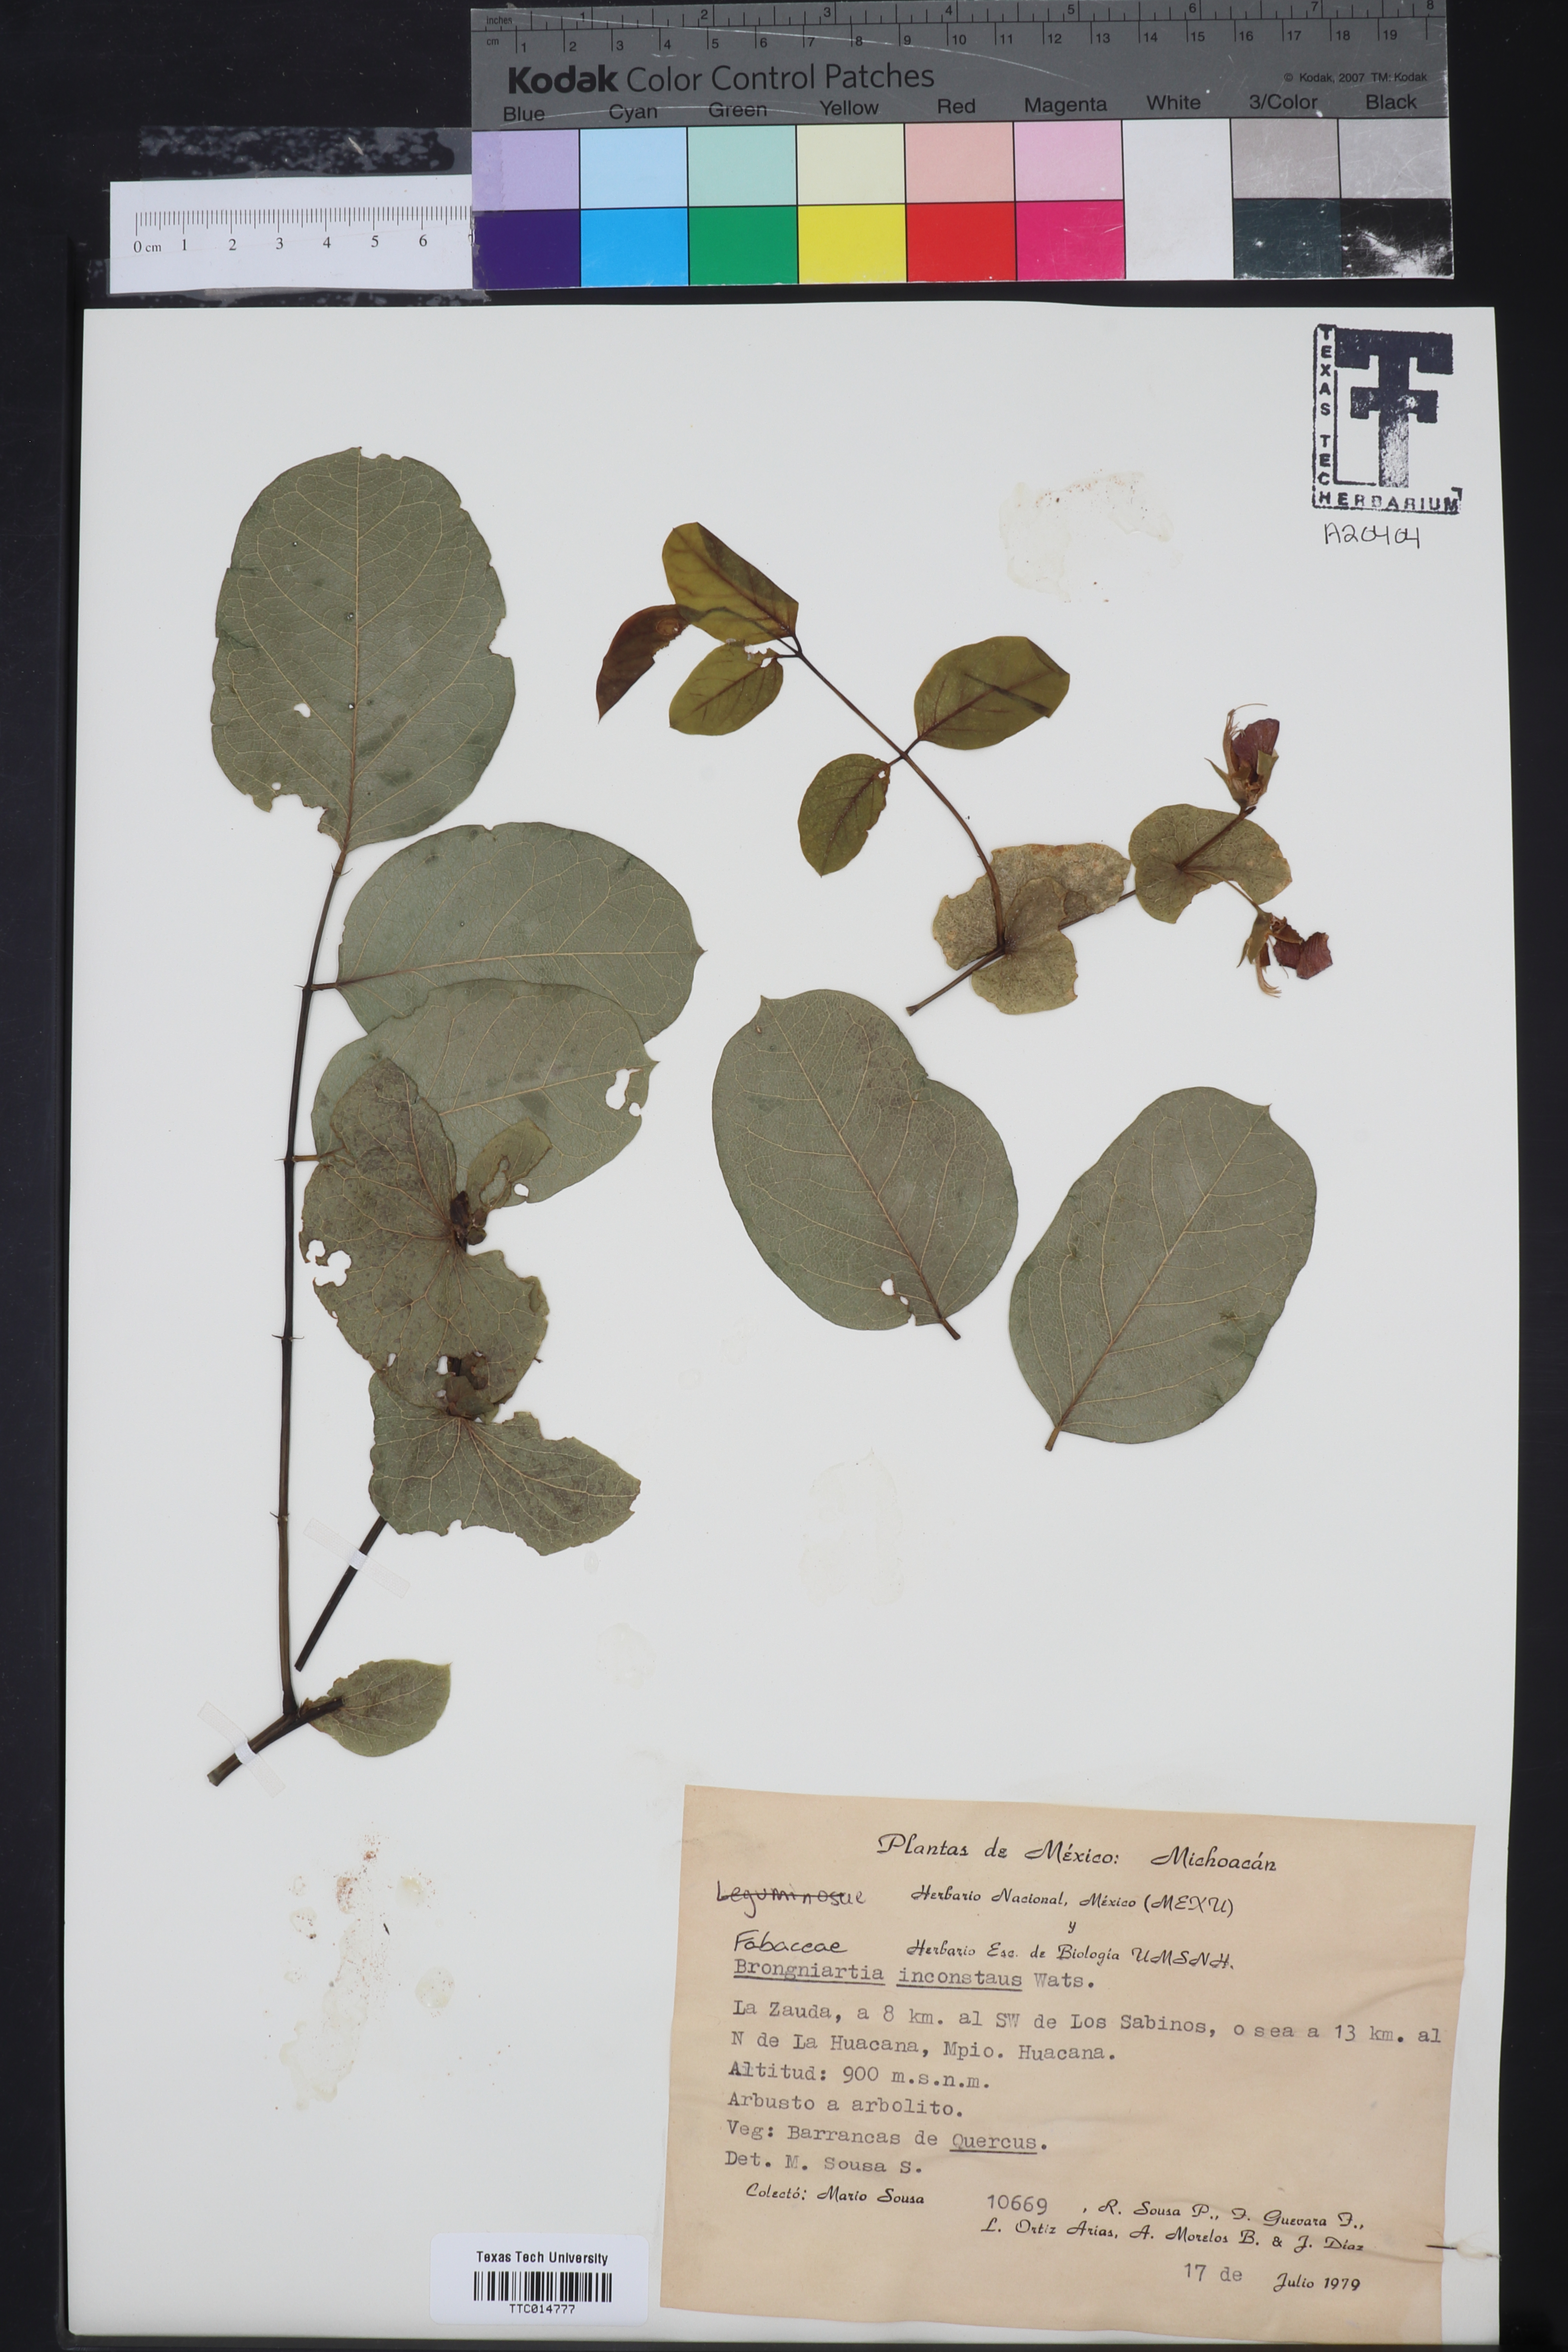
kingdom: Plantae
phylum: Tracheophyta
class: Magnoliopsida
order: Fabales
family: Fabaceae
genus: Brongniartia
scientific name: Brongniartia inconstans
